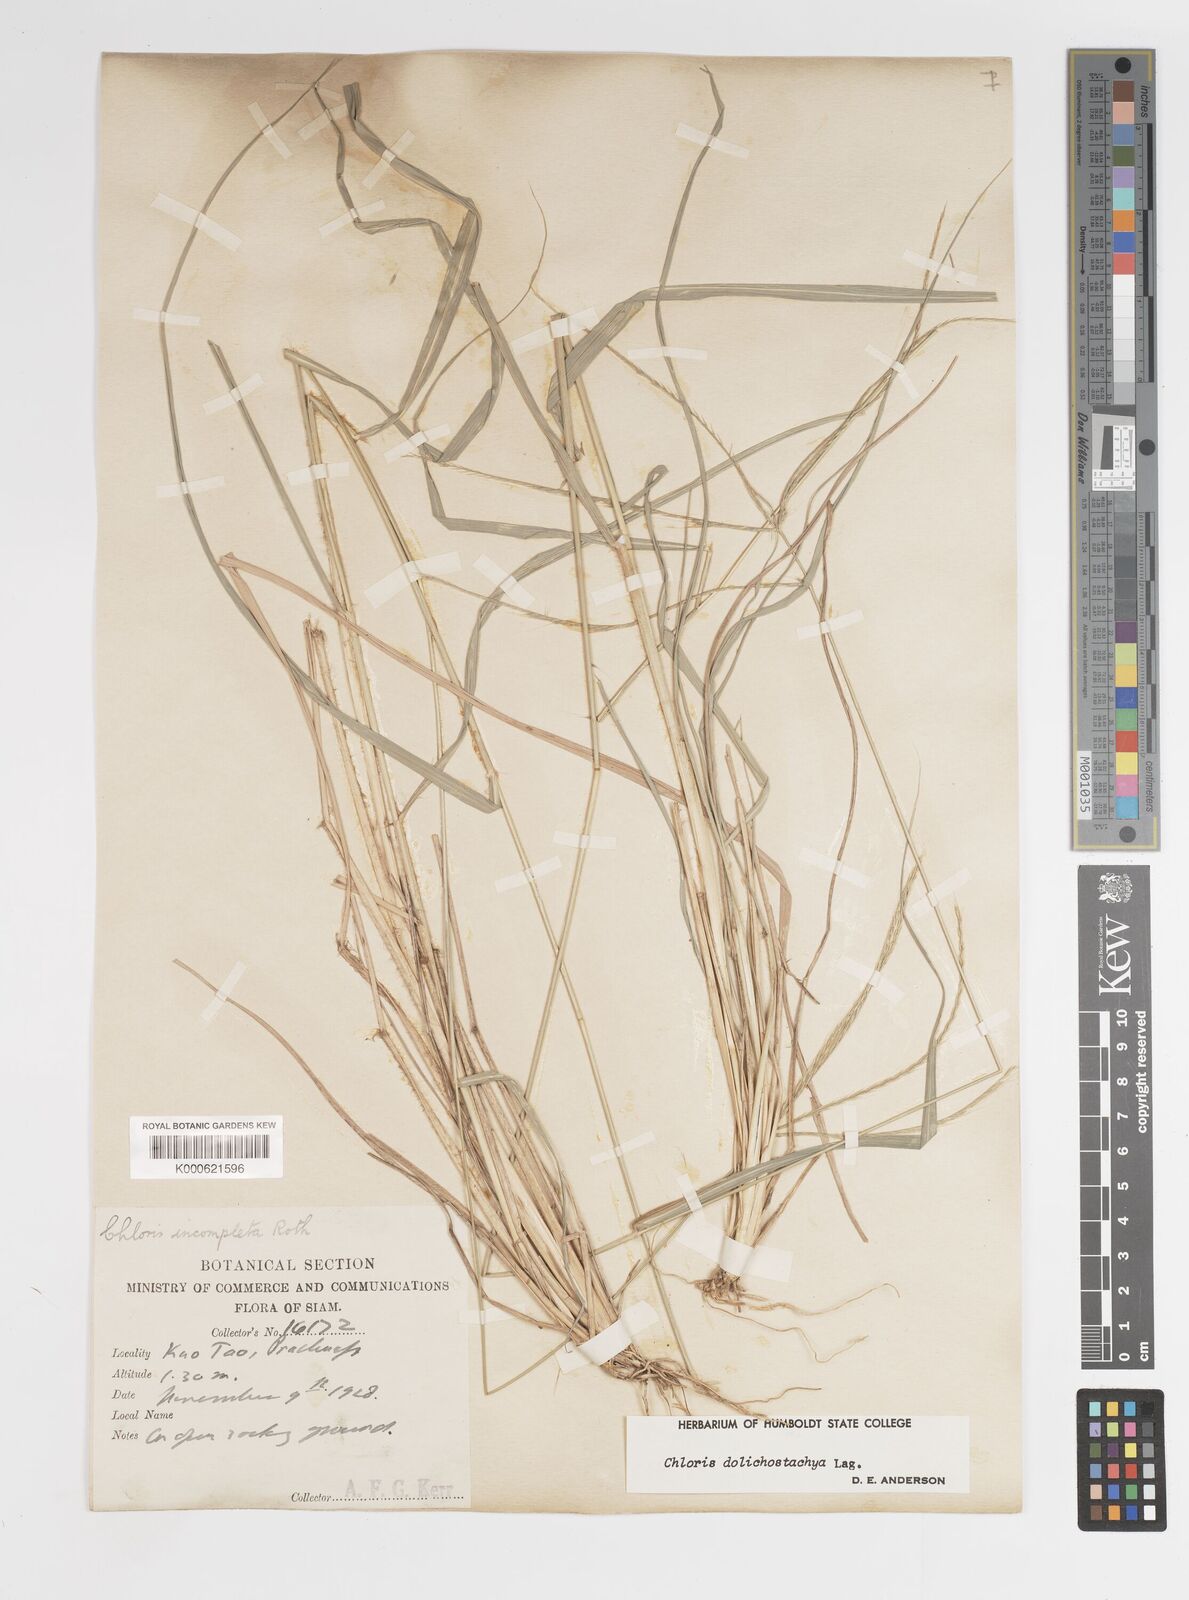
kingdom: Plantae
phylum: Tracheophyta
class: Liliopsida
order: Poales
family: Poaceae
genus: Enteropogon
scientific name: Enteropogon dolichostachyus
